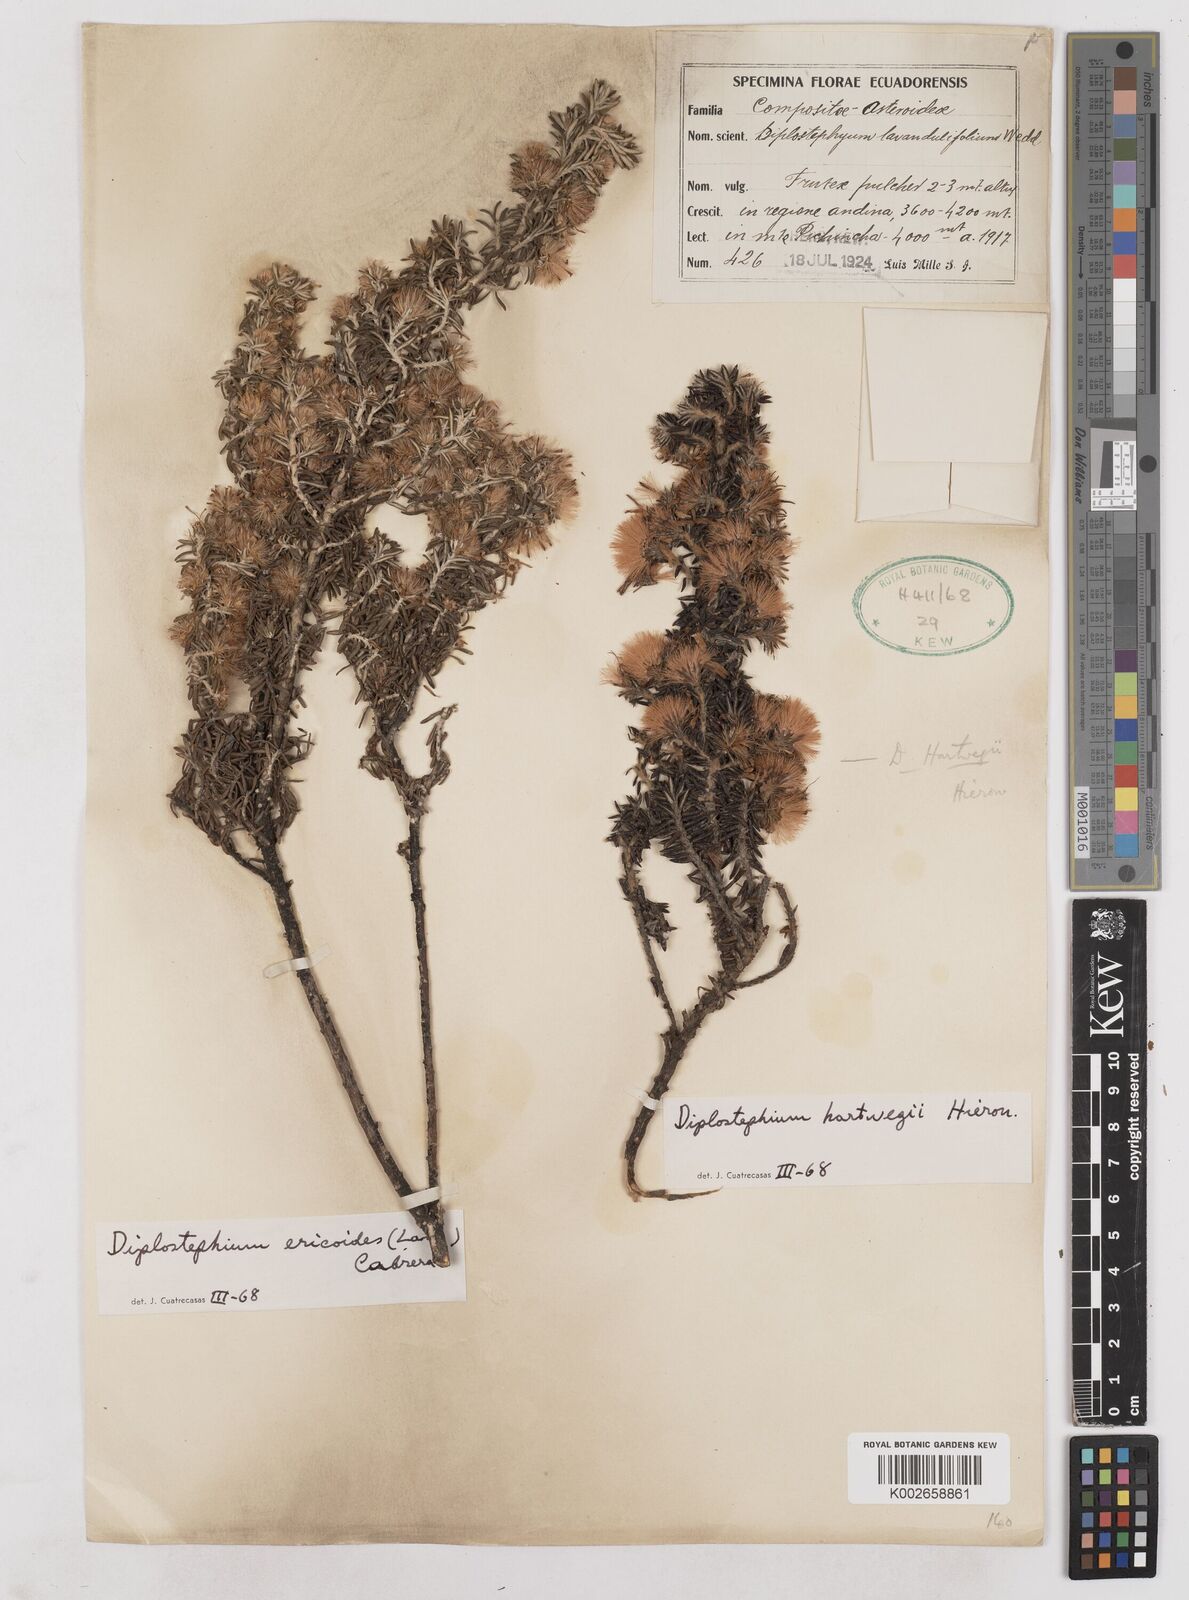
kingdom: Plantae
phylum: Tracheophyta
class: Magnoliopsida
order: Asterales
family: Asteraceae
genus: Diplostephium
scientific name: Diplostephium hartwegii
